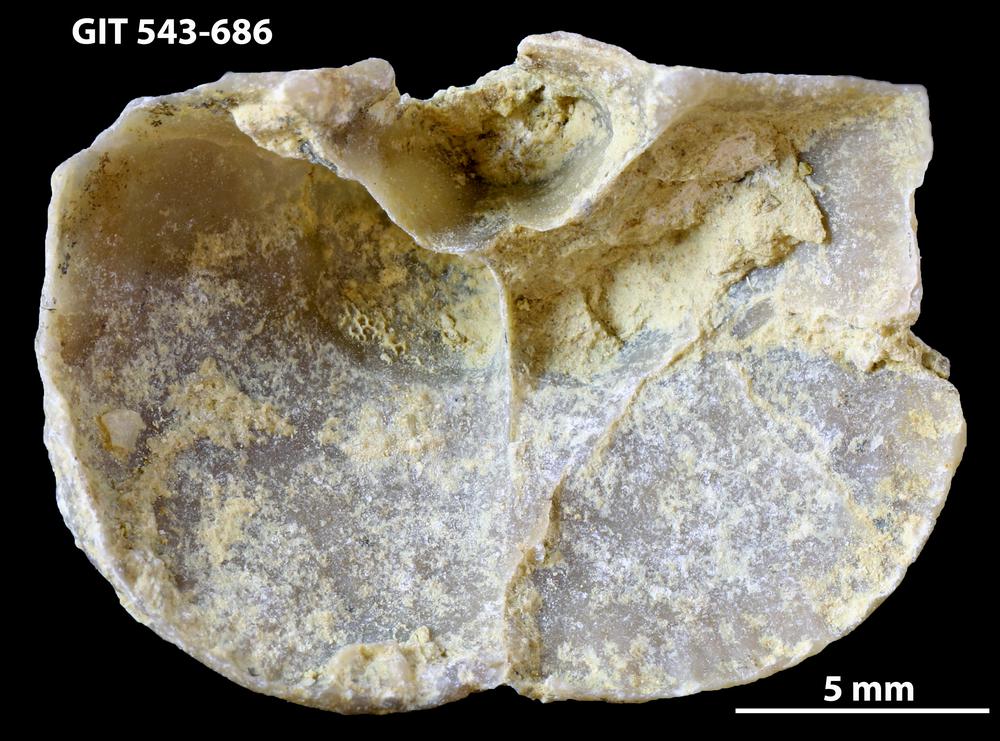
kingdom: Animalia
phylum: Brachiopoda
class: Rhynchonellata
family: Clitambonitidae
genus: Vellamo
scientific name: Vellamo oandoensis
